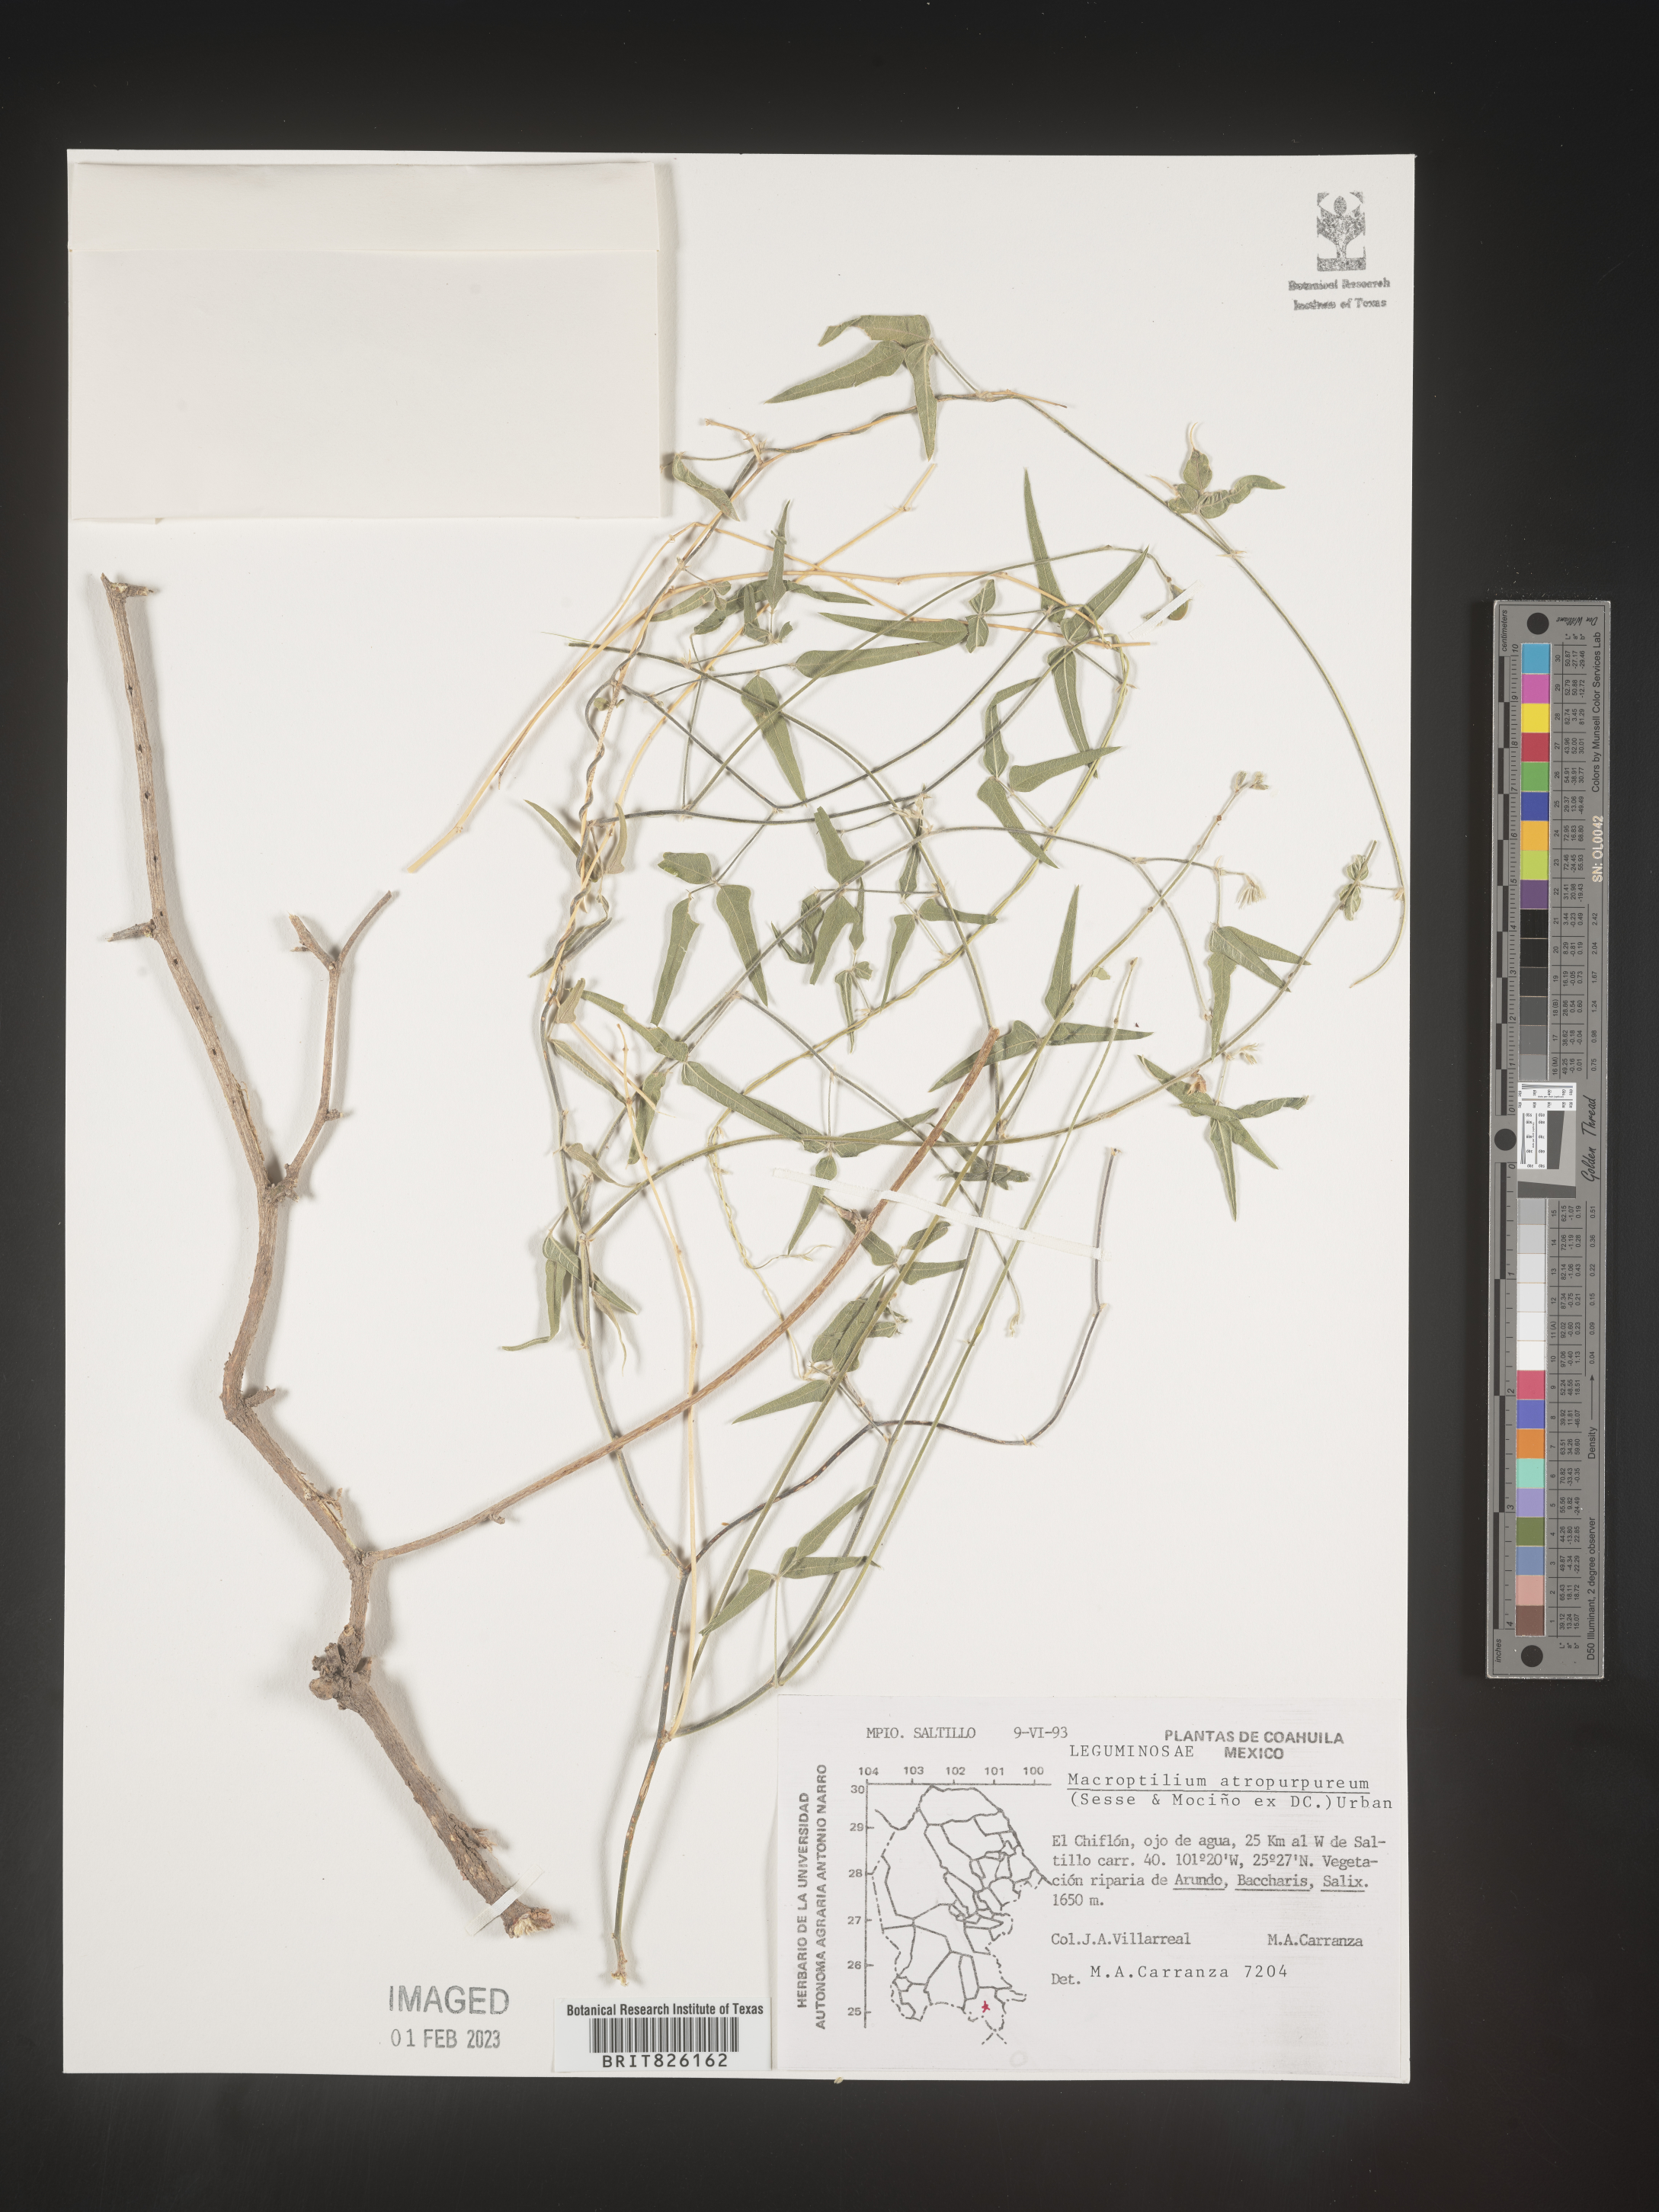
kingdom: Plantae
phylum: Tracheophyta
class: Magnoliopsida
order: Fabales
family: Fabaceae
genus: Macroptilium
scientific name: Macroptilium
